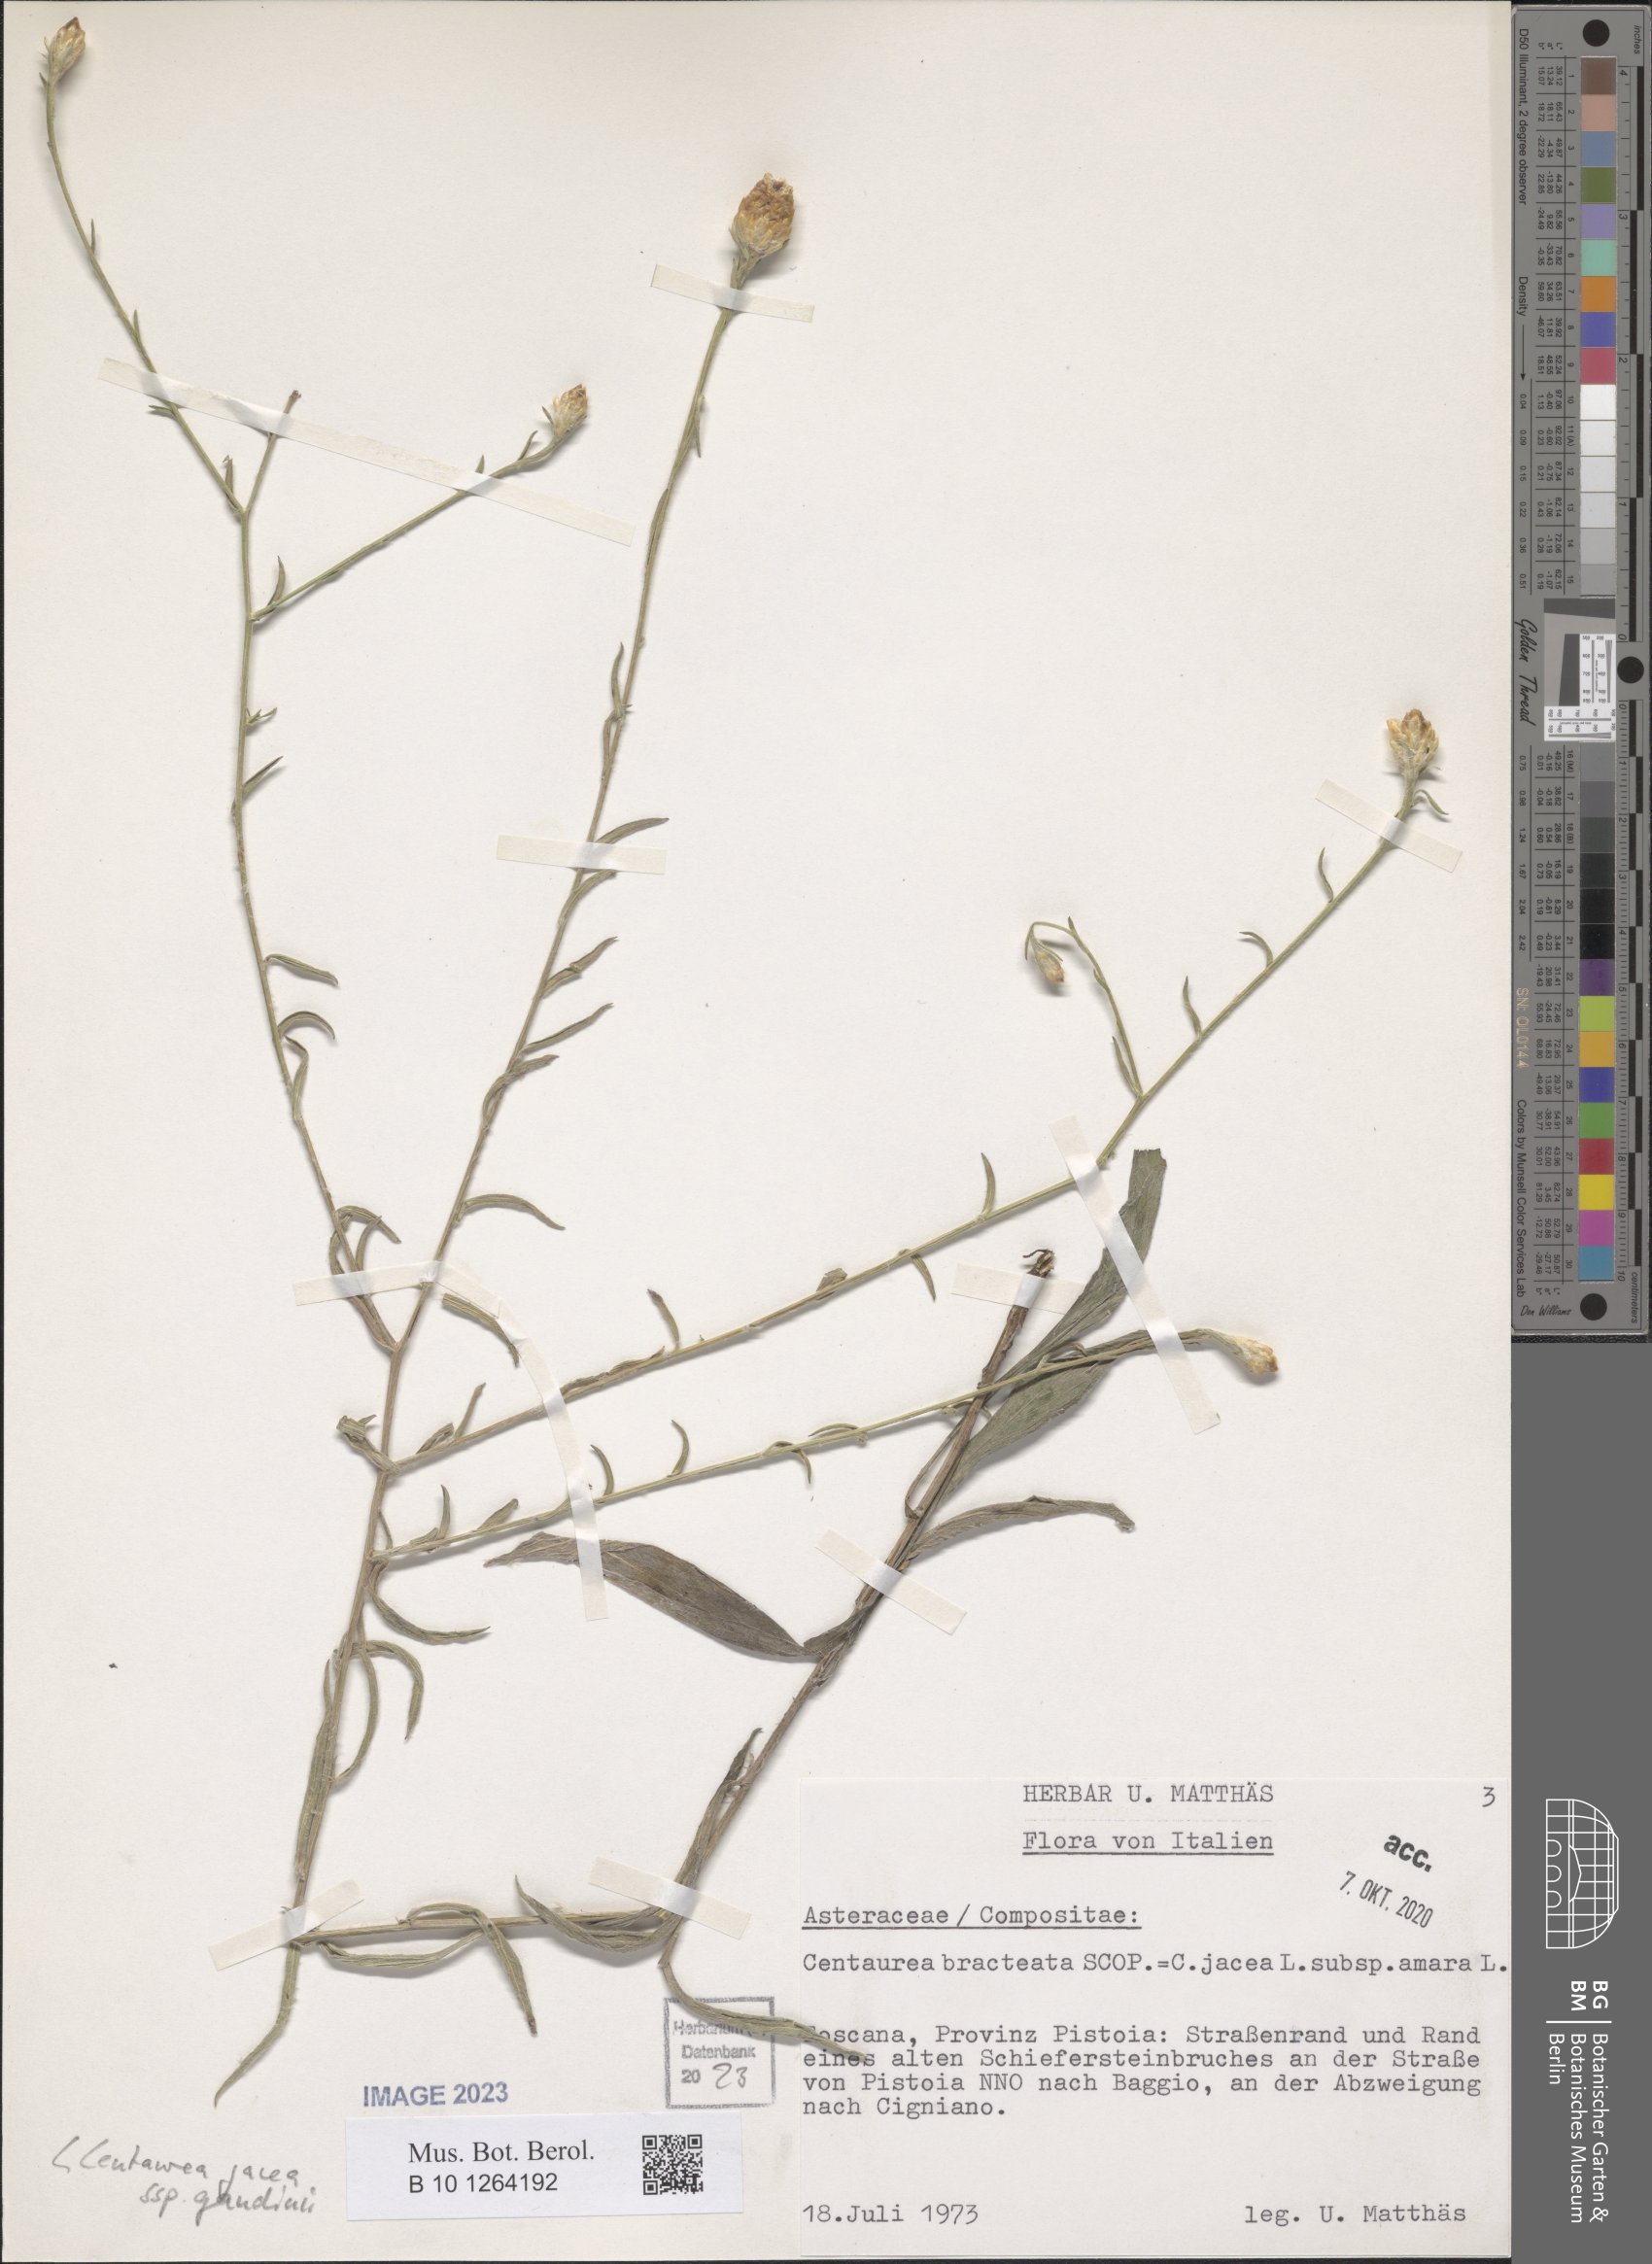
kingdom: Plantae
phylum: Tracheophyta
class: Magnoliopsida
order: Asterales
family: Asteraceae
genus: Centaurea
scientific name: Centaurea jacea
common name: Brown knapweed
